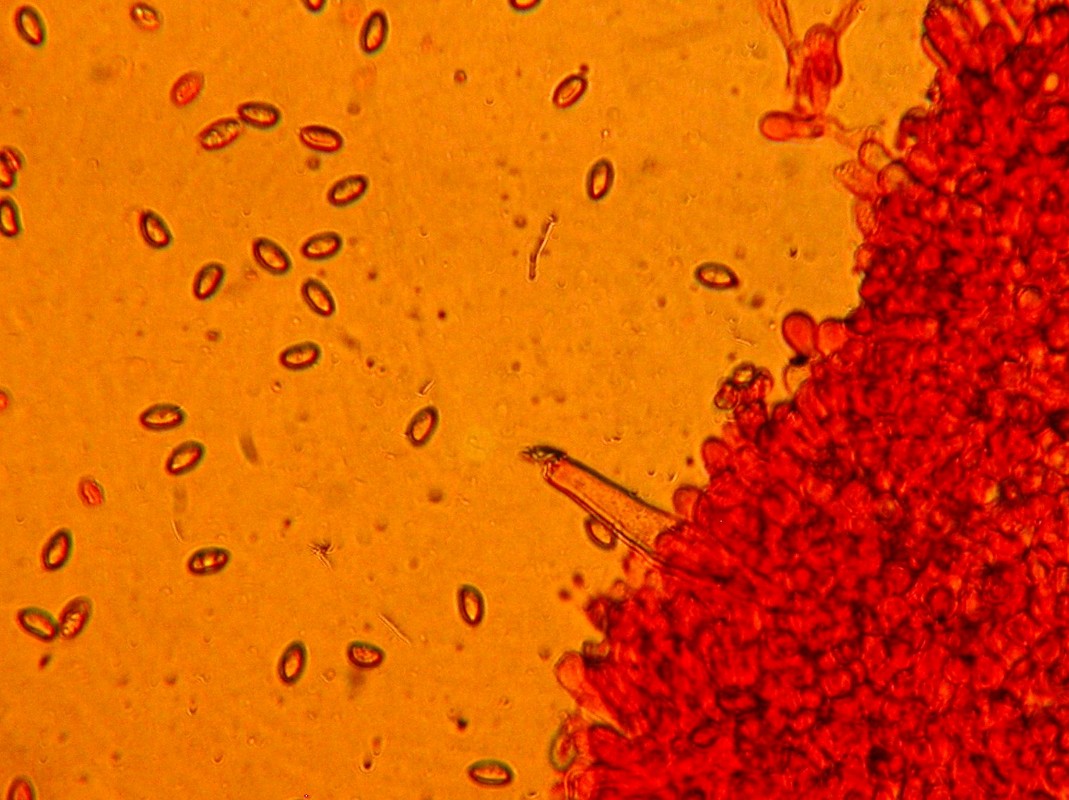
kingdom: Fungi
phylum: Basidiomycota
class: Agaricomycetes
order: Agaricales
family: Inocybaceae
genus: Inocybe
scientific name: Inocybe sindonia
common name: bleg trævlhat
